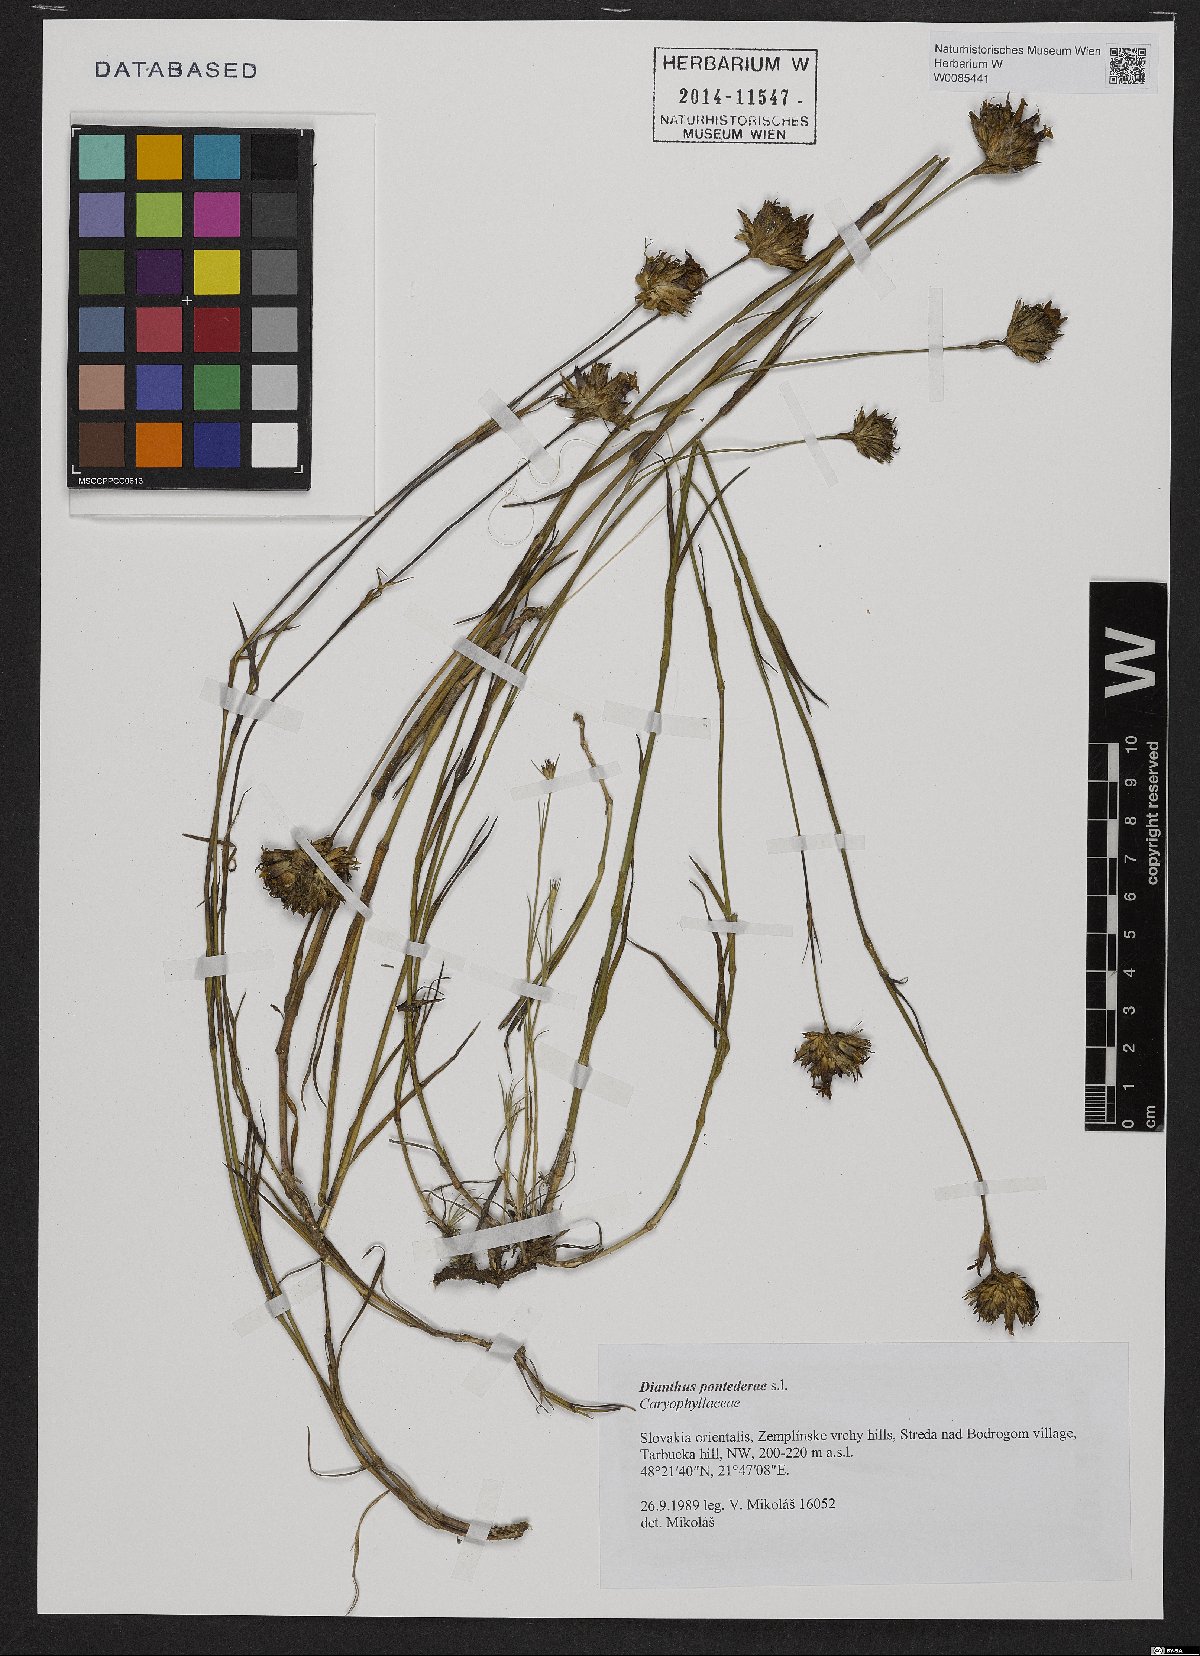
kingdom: Plantae
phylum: Tracheophyta
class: Magnoliopsida
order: Caryophyllales
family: Caryophyllaceae
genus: Dianthus
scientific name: Dianthus pontederae
